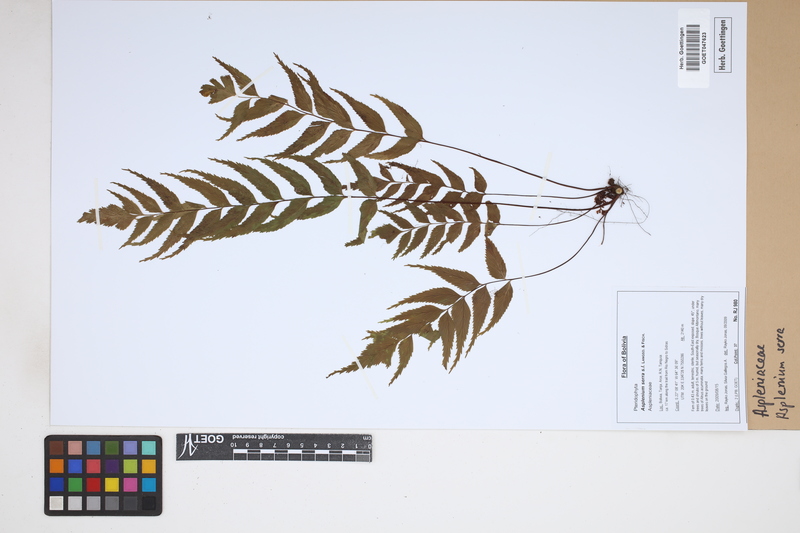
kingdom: Plantae
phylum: Tracheophyta
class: Polypodiopsida
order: Polypodiales
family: Aspleniaceae
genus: Asplenium
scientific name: Asplenium serra
